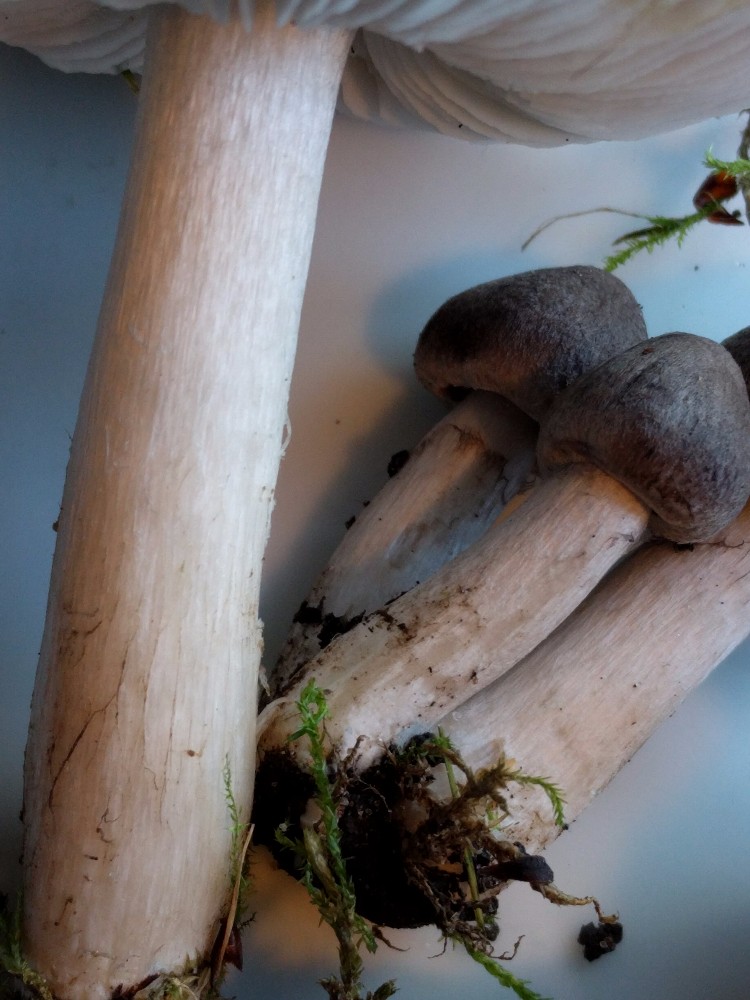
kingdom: Fungi
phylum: Basidiomycota
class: Agaricomycetes
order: Agaricales
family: Tricholomataceae
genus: Tricholoma
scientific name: Tricholoma terreum
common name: jordfarvet ridderhat
